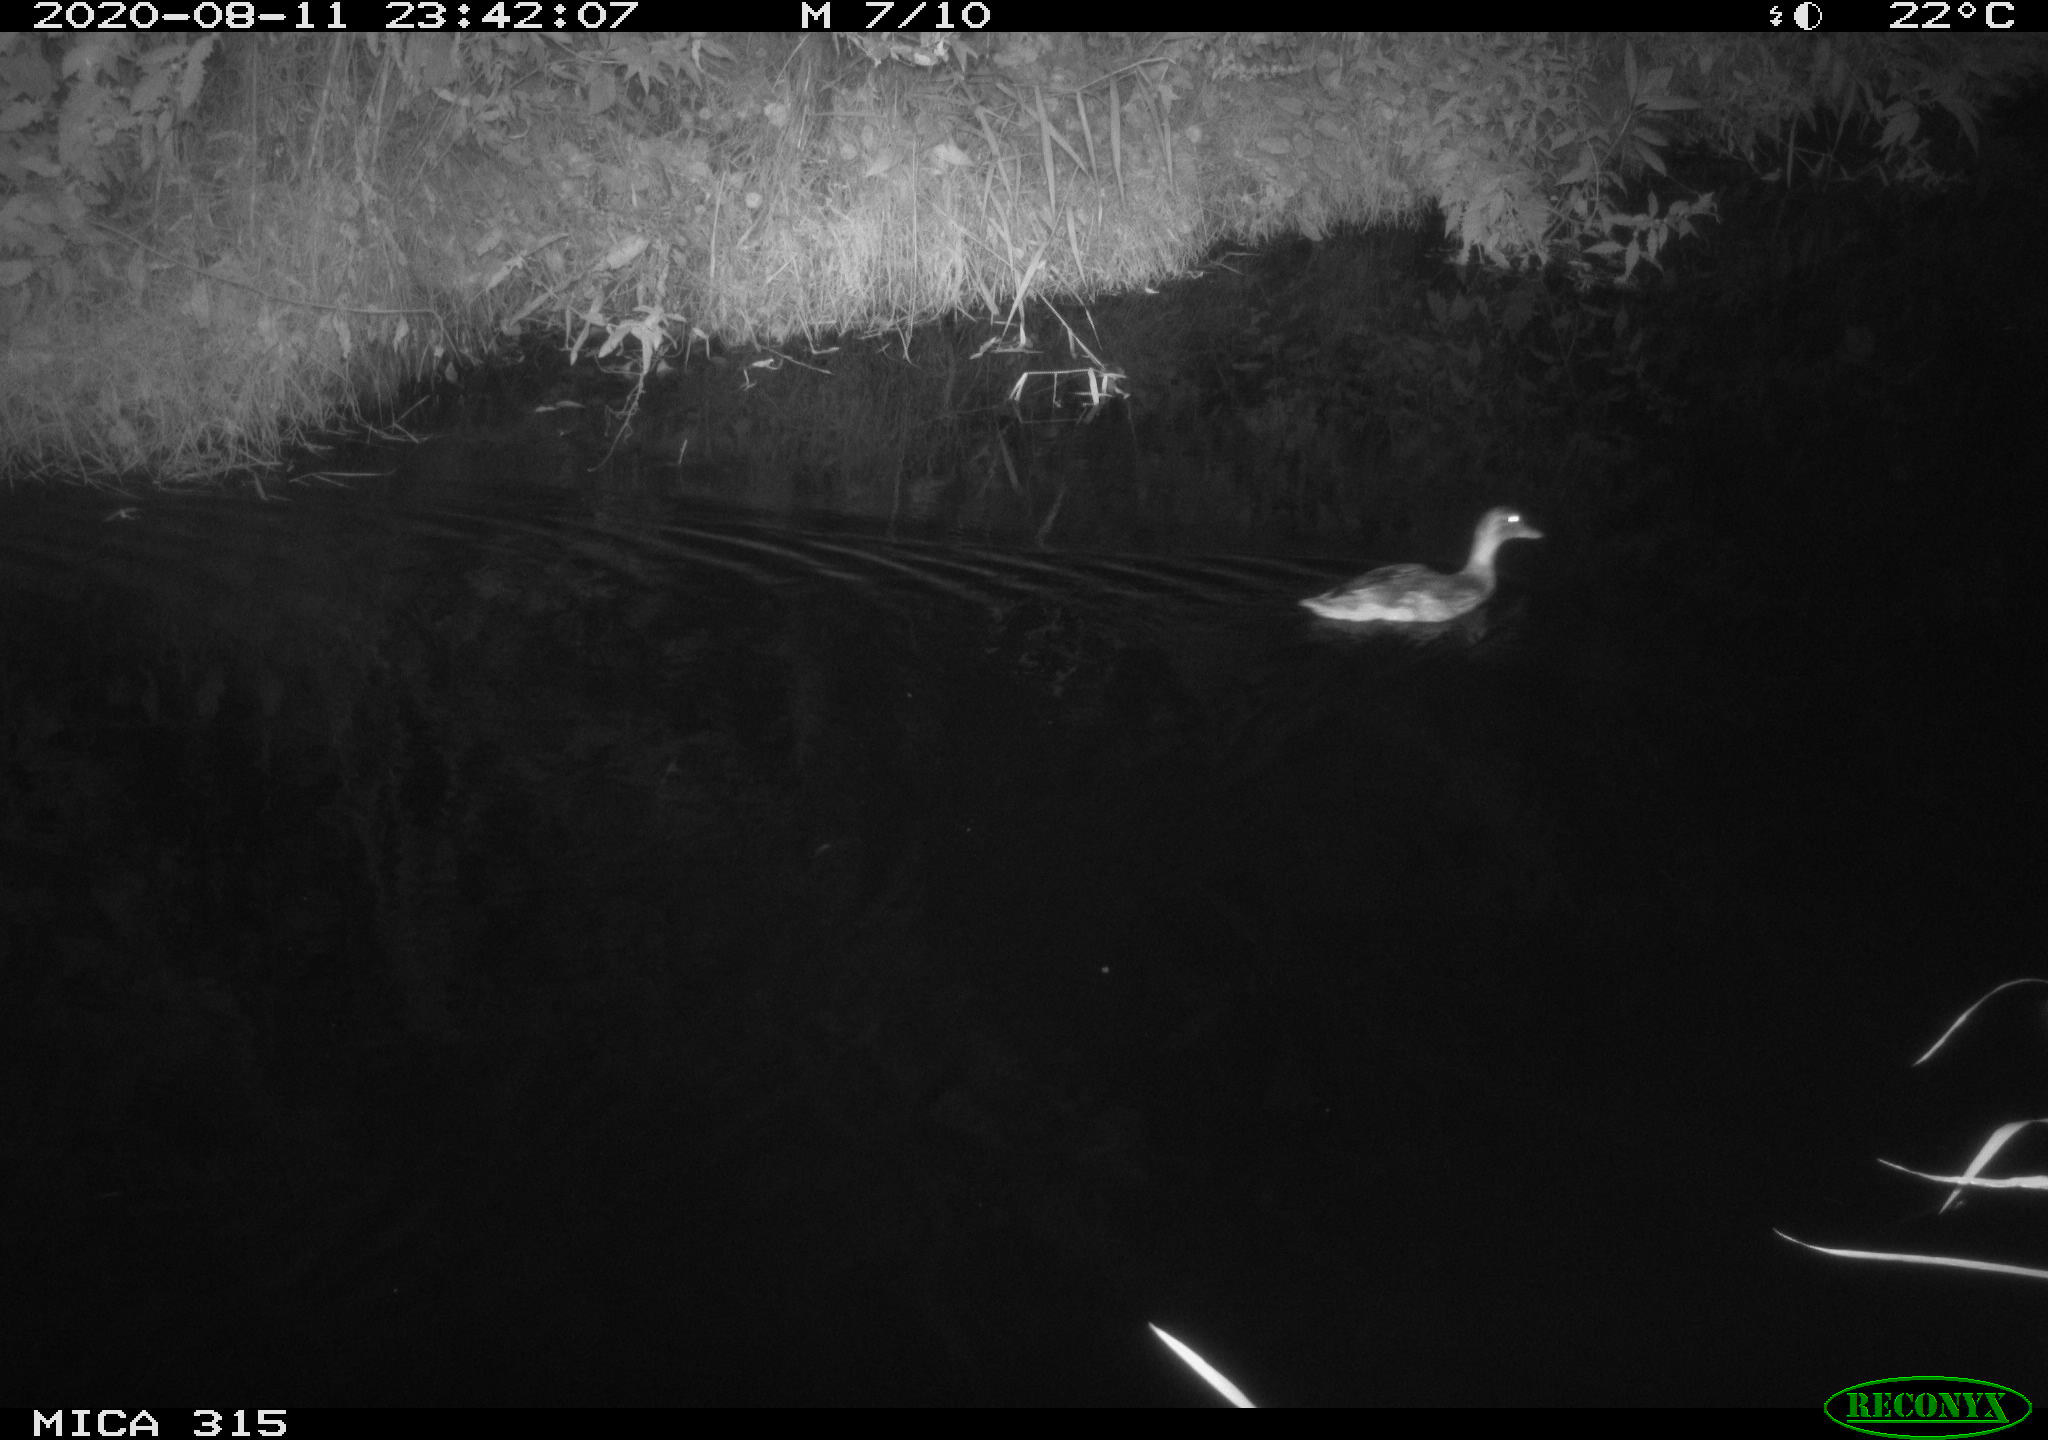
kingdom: Animalia
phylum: Chordata
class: Aves
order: Anseriformes
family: Anatidae
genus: Anas
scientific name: Anas platyrhynchos
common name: Mallard
